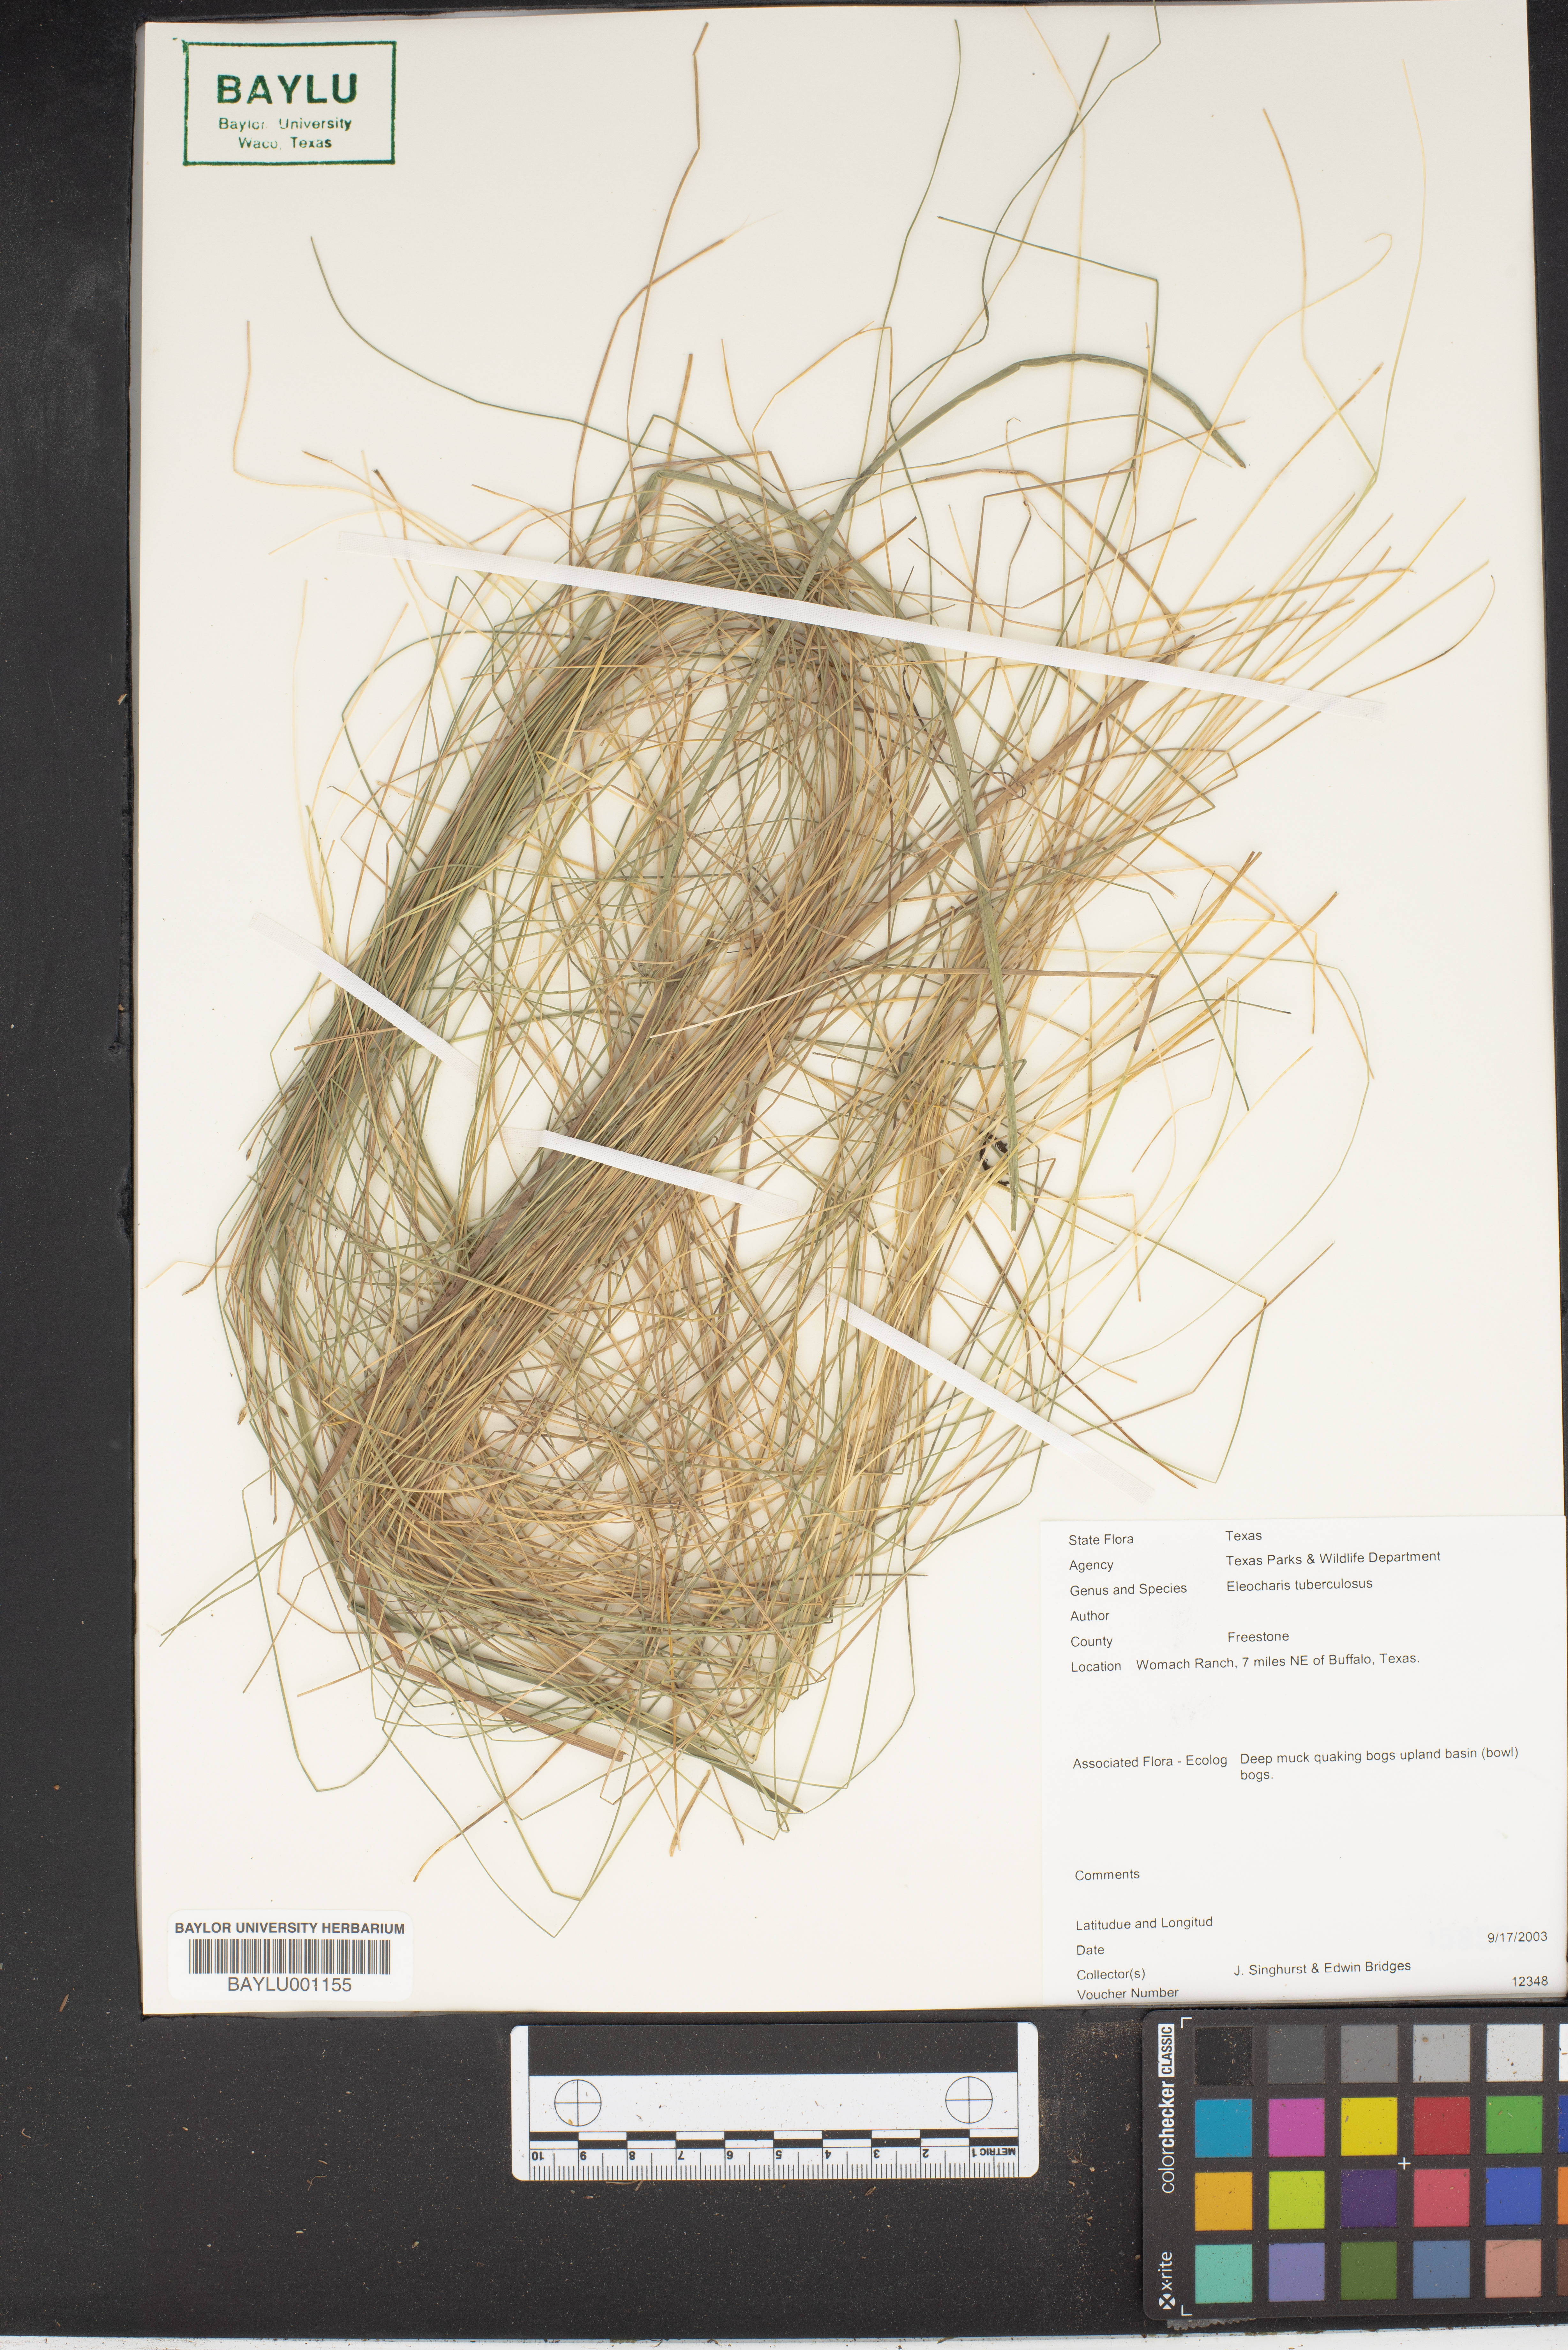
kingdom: Plantae
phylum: Tracheophyta
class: Liliopsida
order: Poales
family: Cyperaceae
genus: Eleocharis
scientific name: Eleocharis tuberculosa
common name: Cone-cup spikerush
